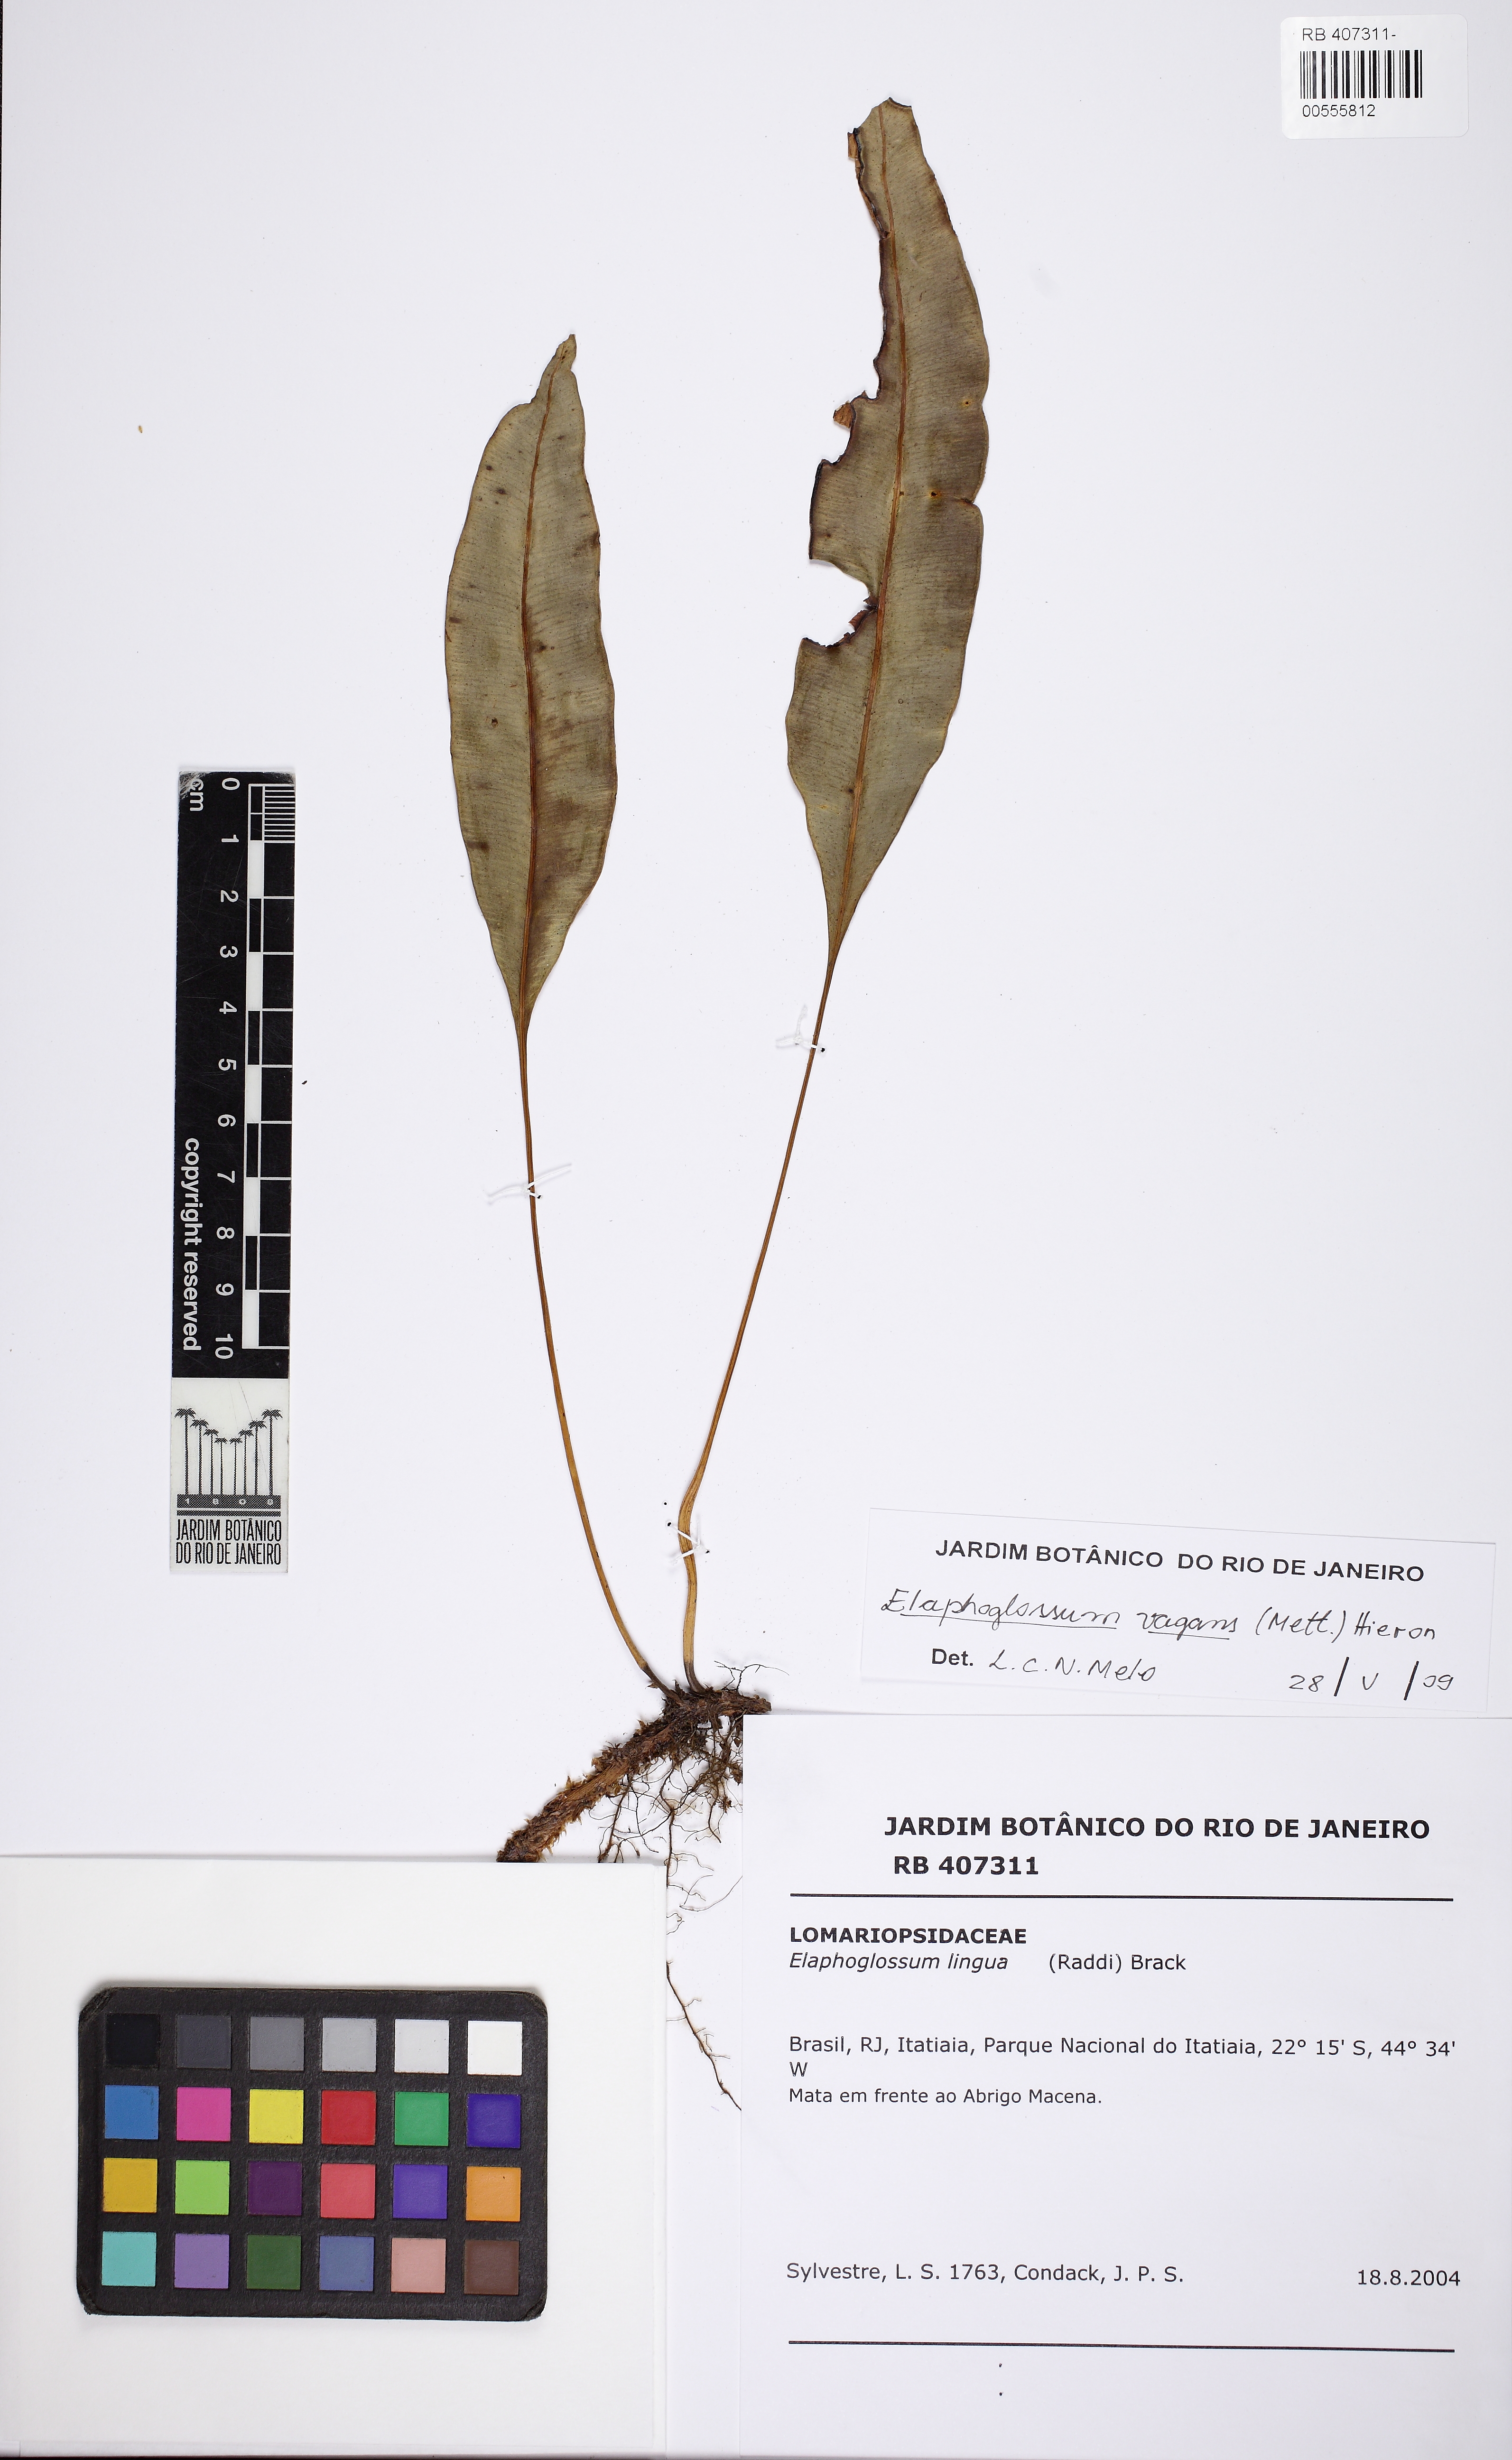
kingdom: Plantae
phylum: Tracheophyta
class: Polypodiopsida
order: Polypodiales
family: Dryopteridaceae
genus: Elaphoglossum
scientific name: Elaphoglossum vagans
